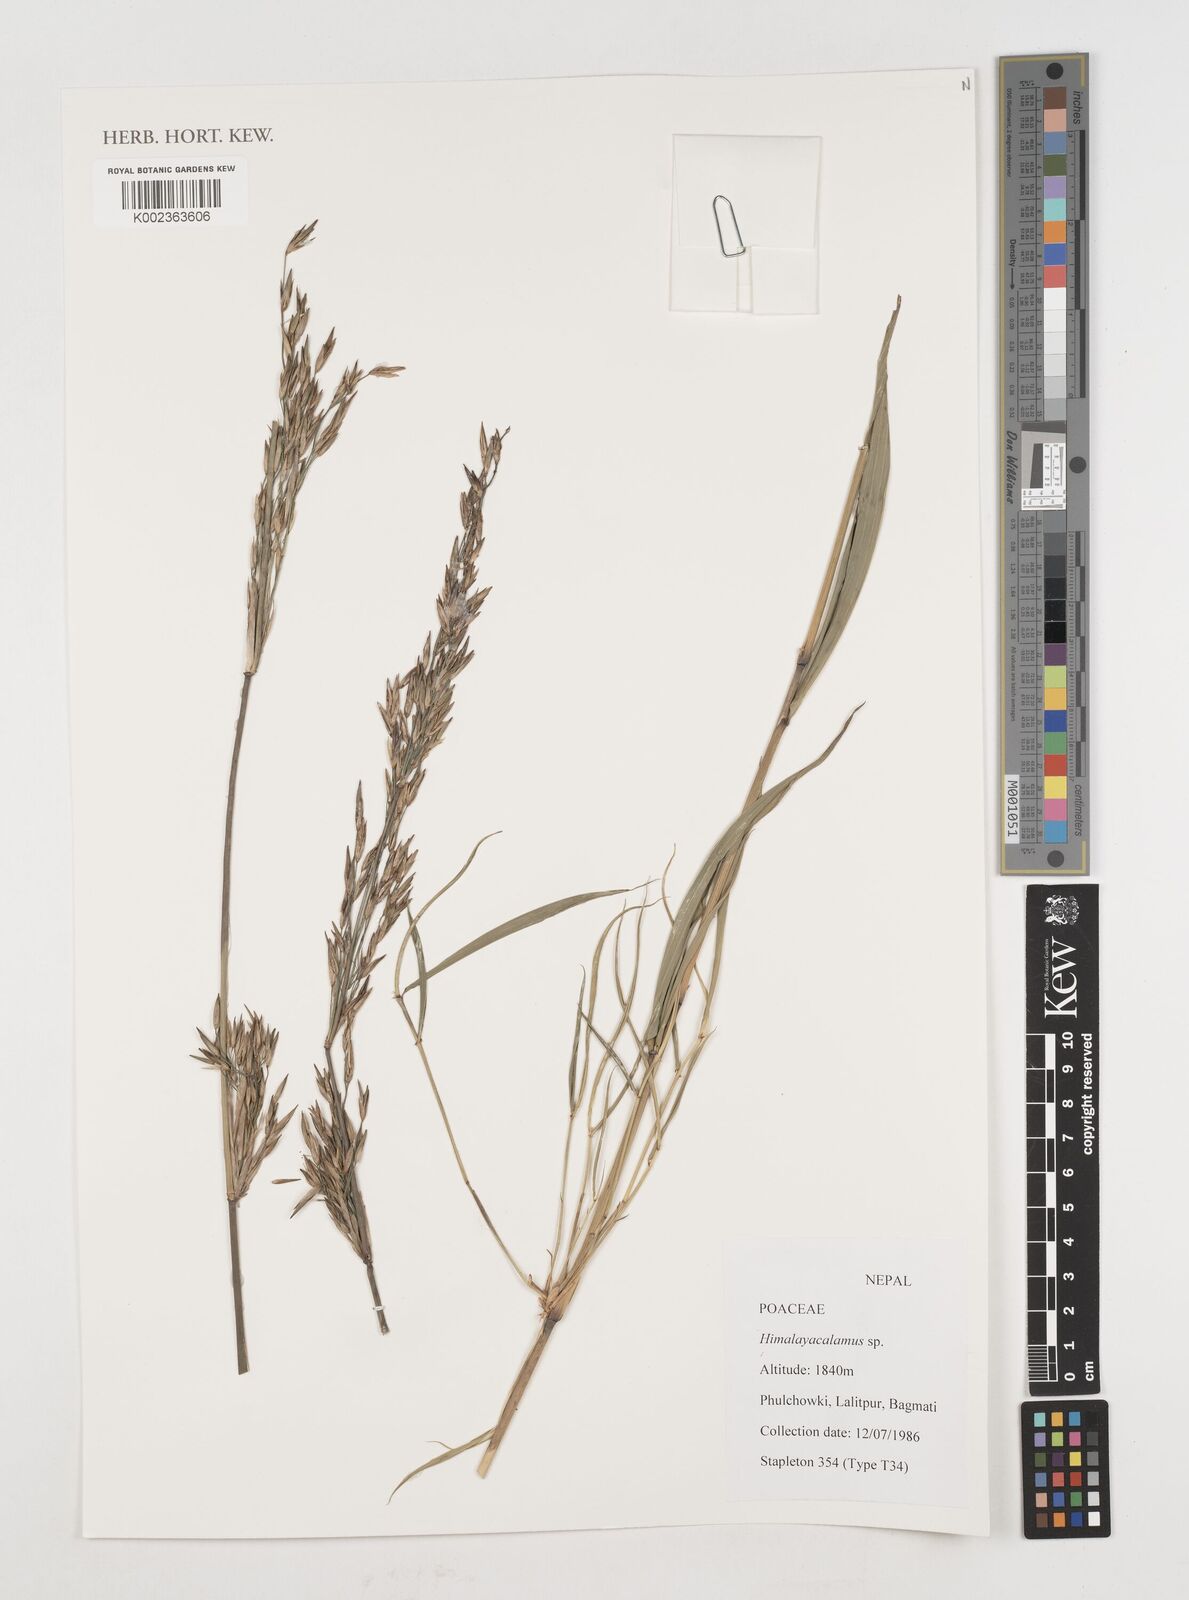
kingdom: Plantae
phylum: Tracheophyta
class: Liliopsida
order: Poales
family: Poaceae
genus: Himalayacalamus
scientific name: Himalayacalamus
